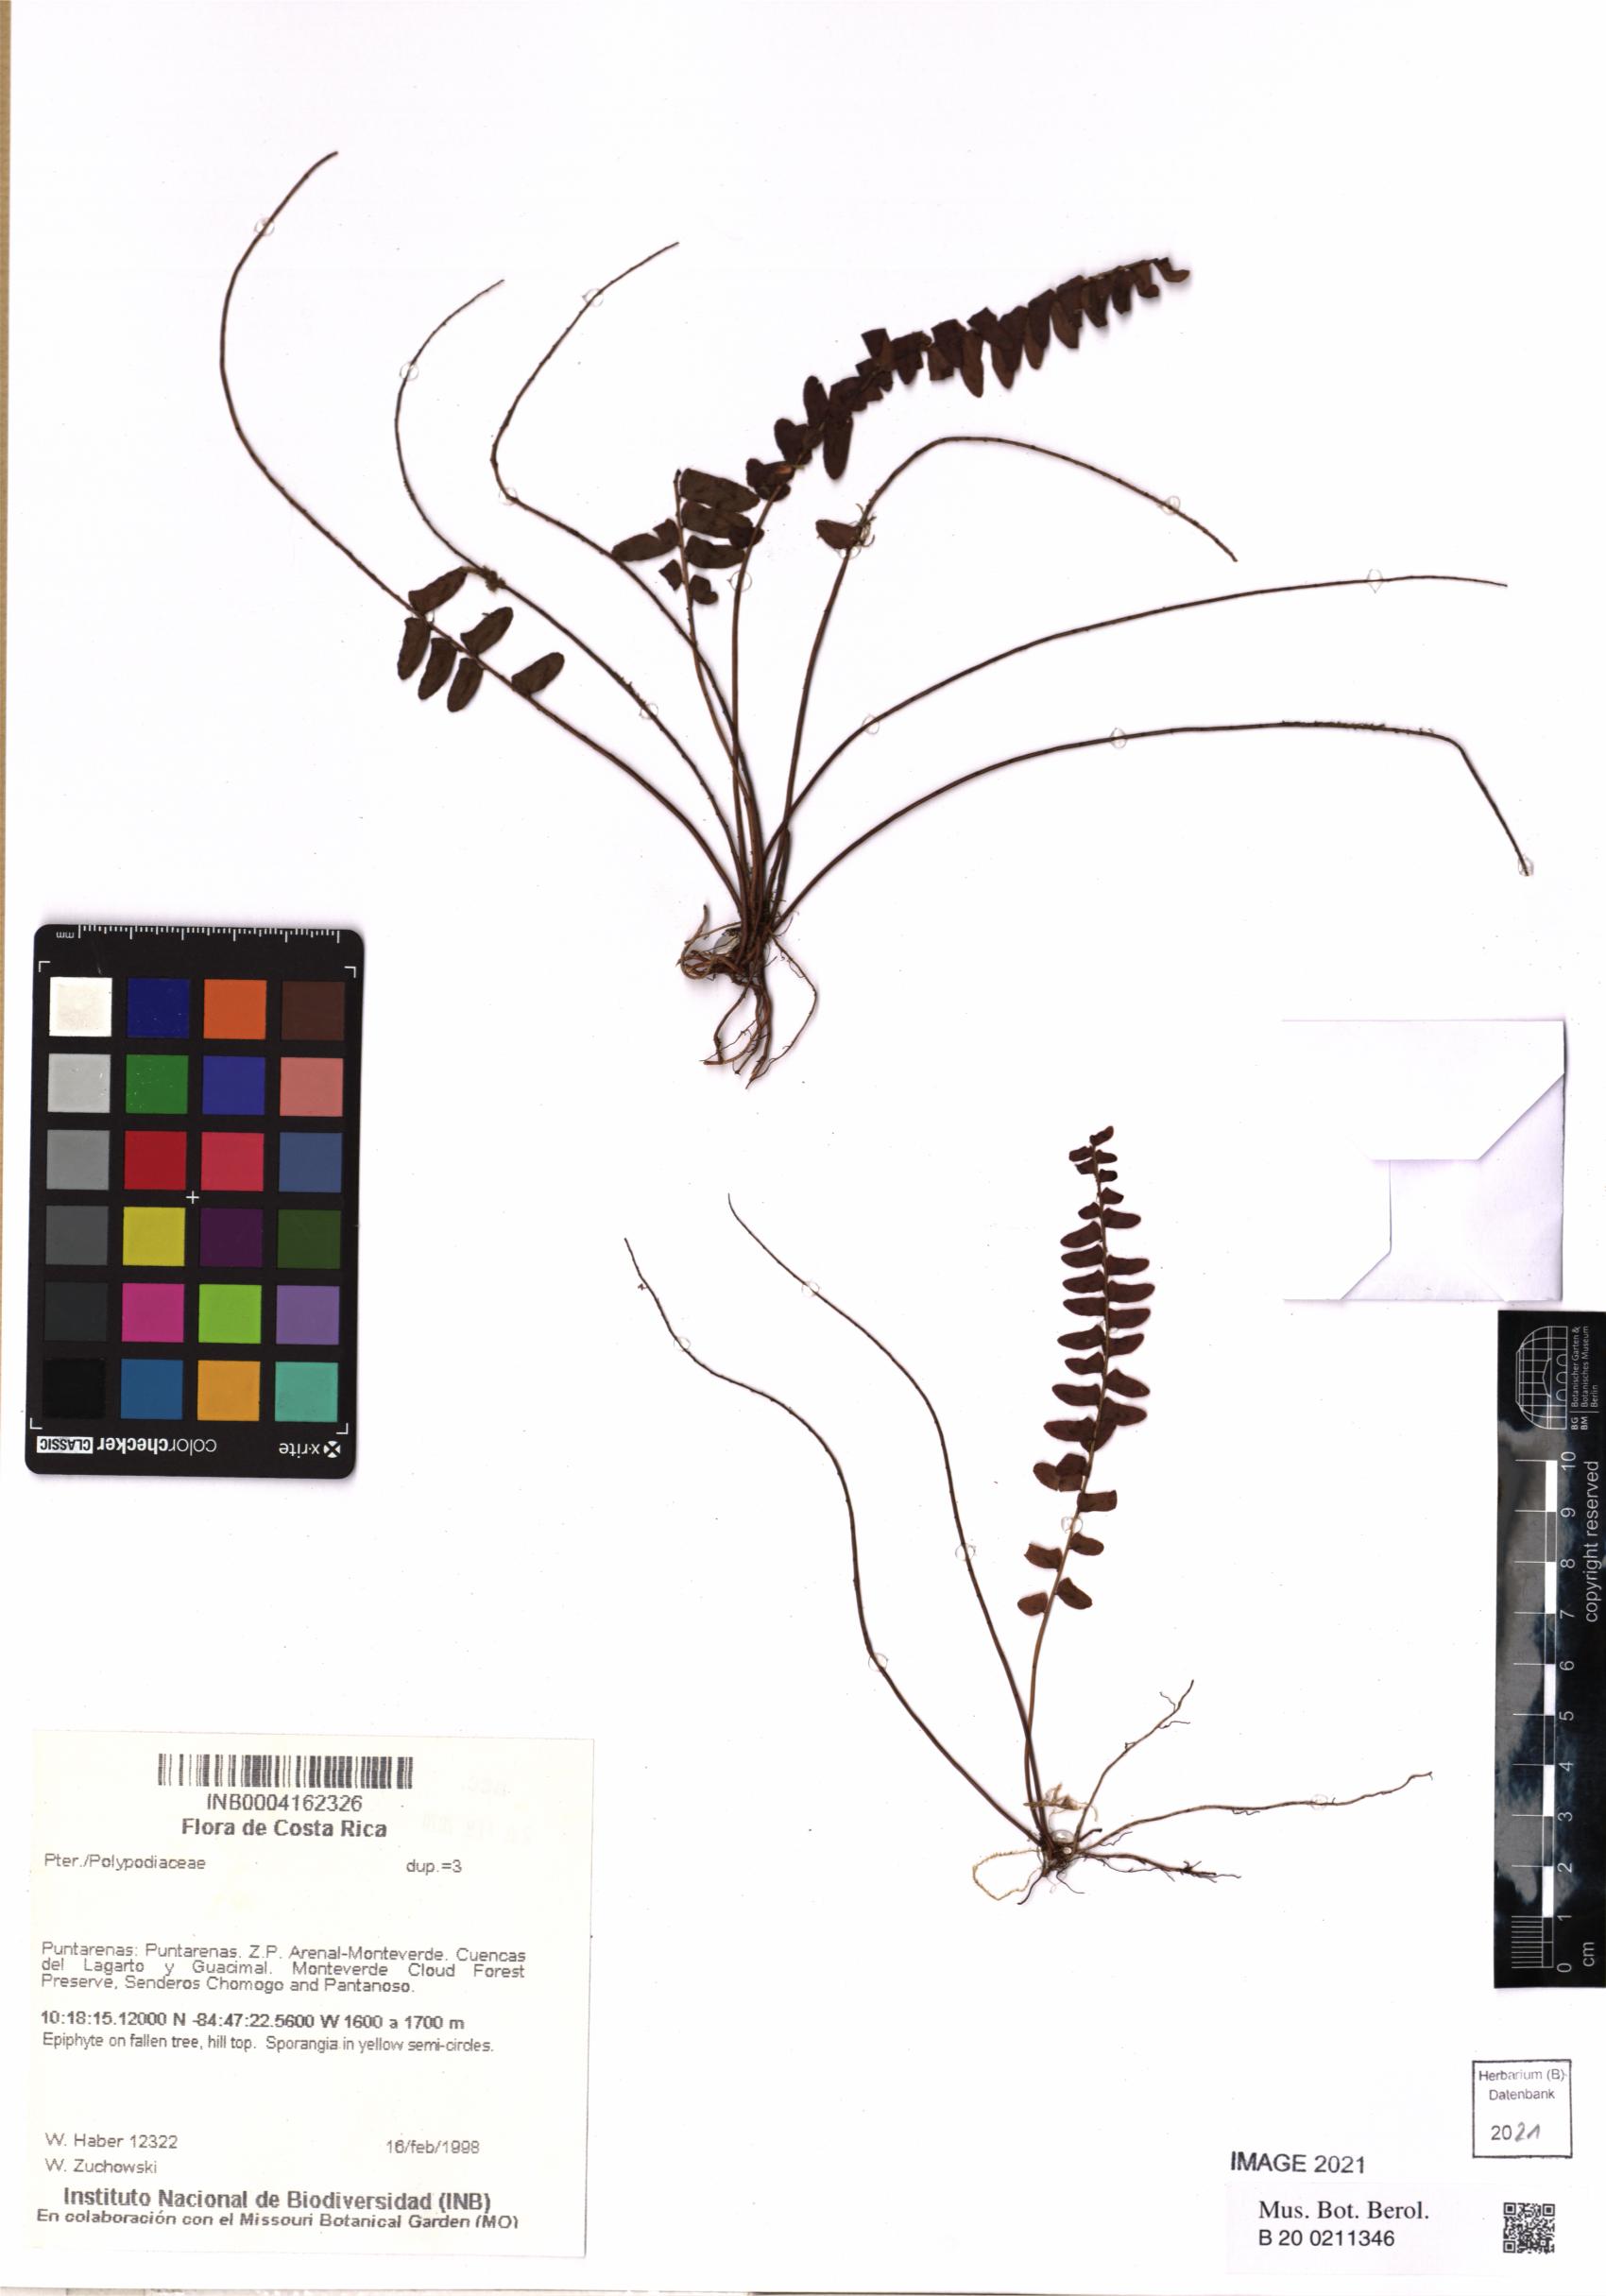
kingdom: Plantae
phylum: Tracheophyta
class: Polypodiopsida
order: Polypodiales
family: Polypodiaceae
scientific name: Polypodiaceae
